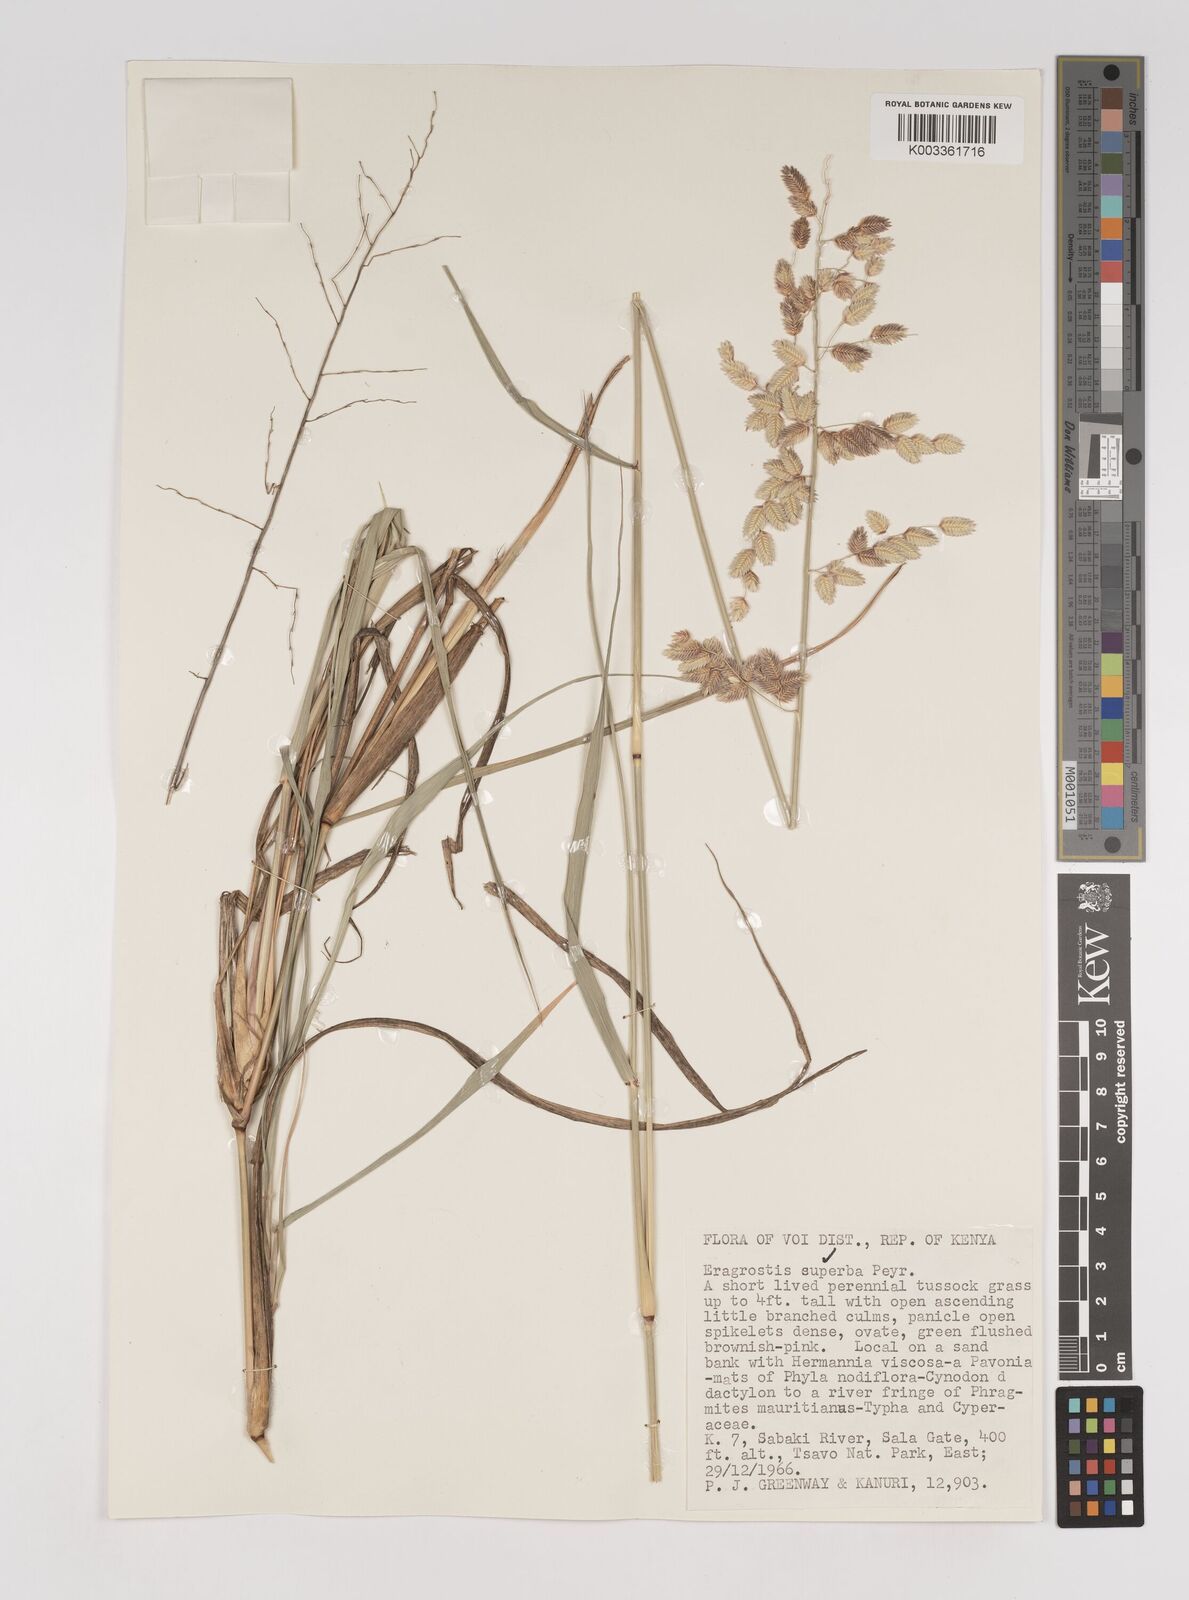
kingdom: Plantae
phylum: Tracheophyta
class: Liliopsida
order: Poales
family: Poaceae
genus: Eragrostis
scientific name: Eragrostis superba
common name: Wilman lovegrass
